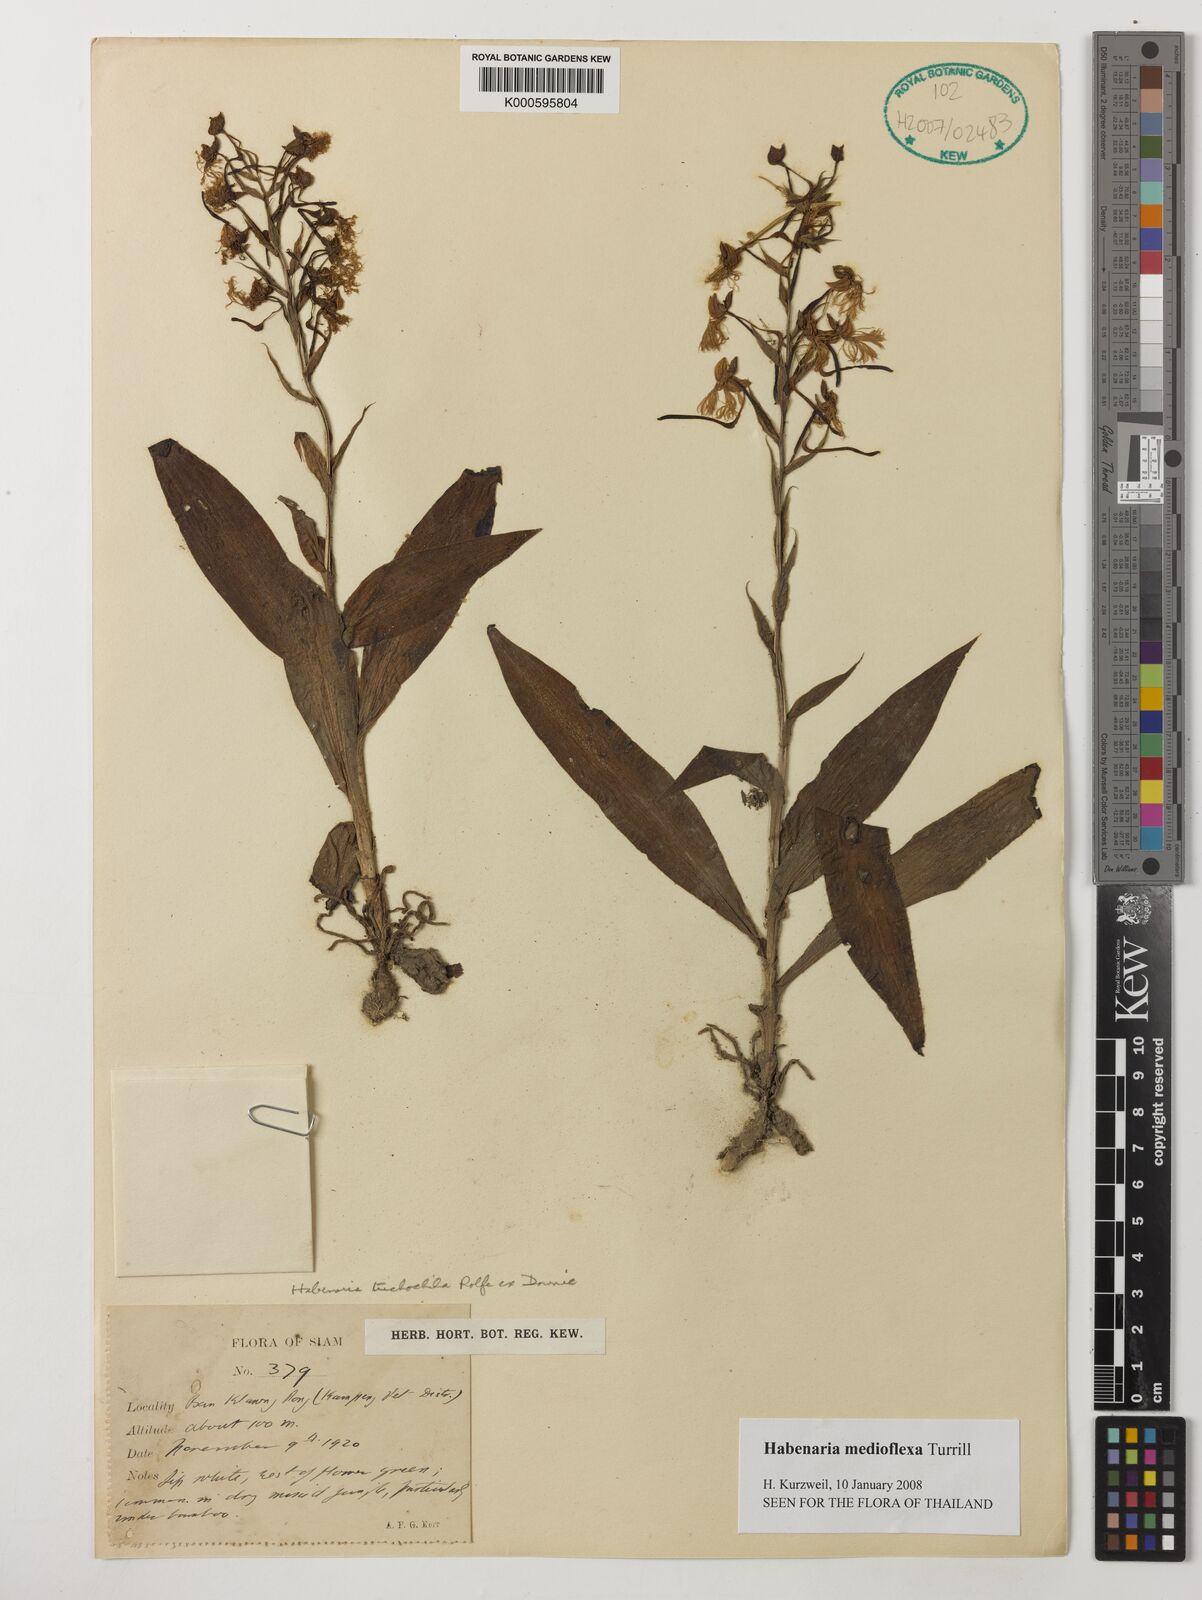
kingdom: Plantae
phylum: Tracheophyta
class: Liliopsida
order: Asparagales
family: Orchidaceae
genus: Habenaria
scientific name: Habenaria medioflexa
